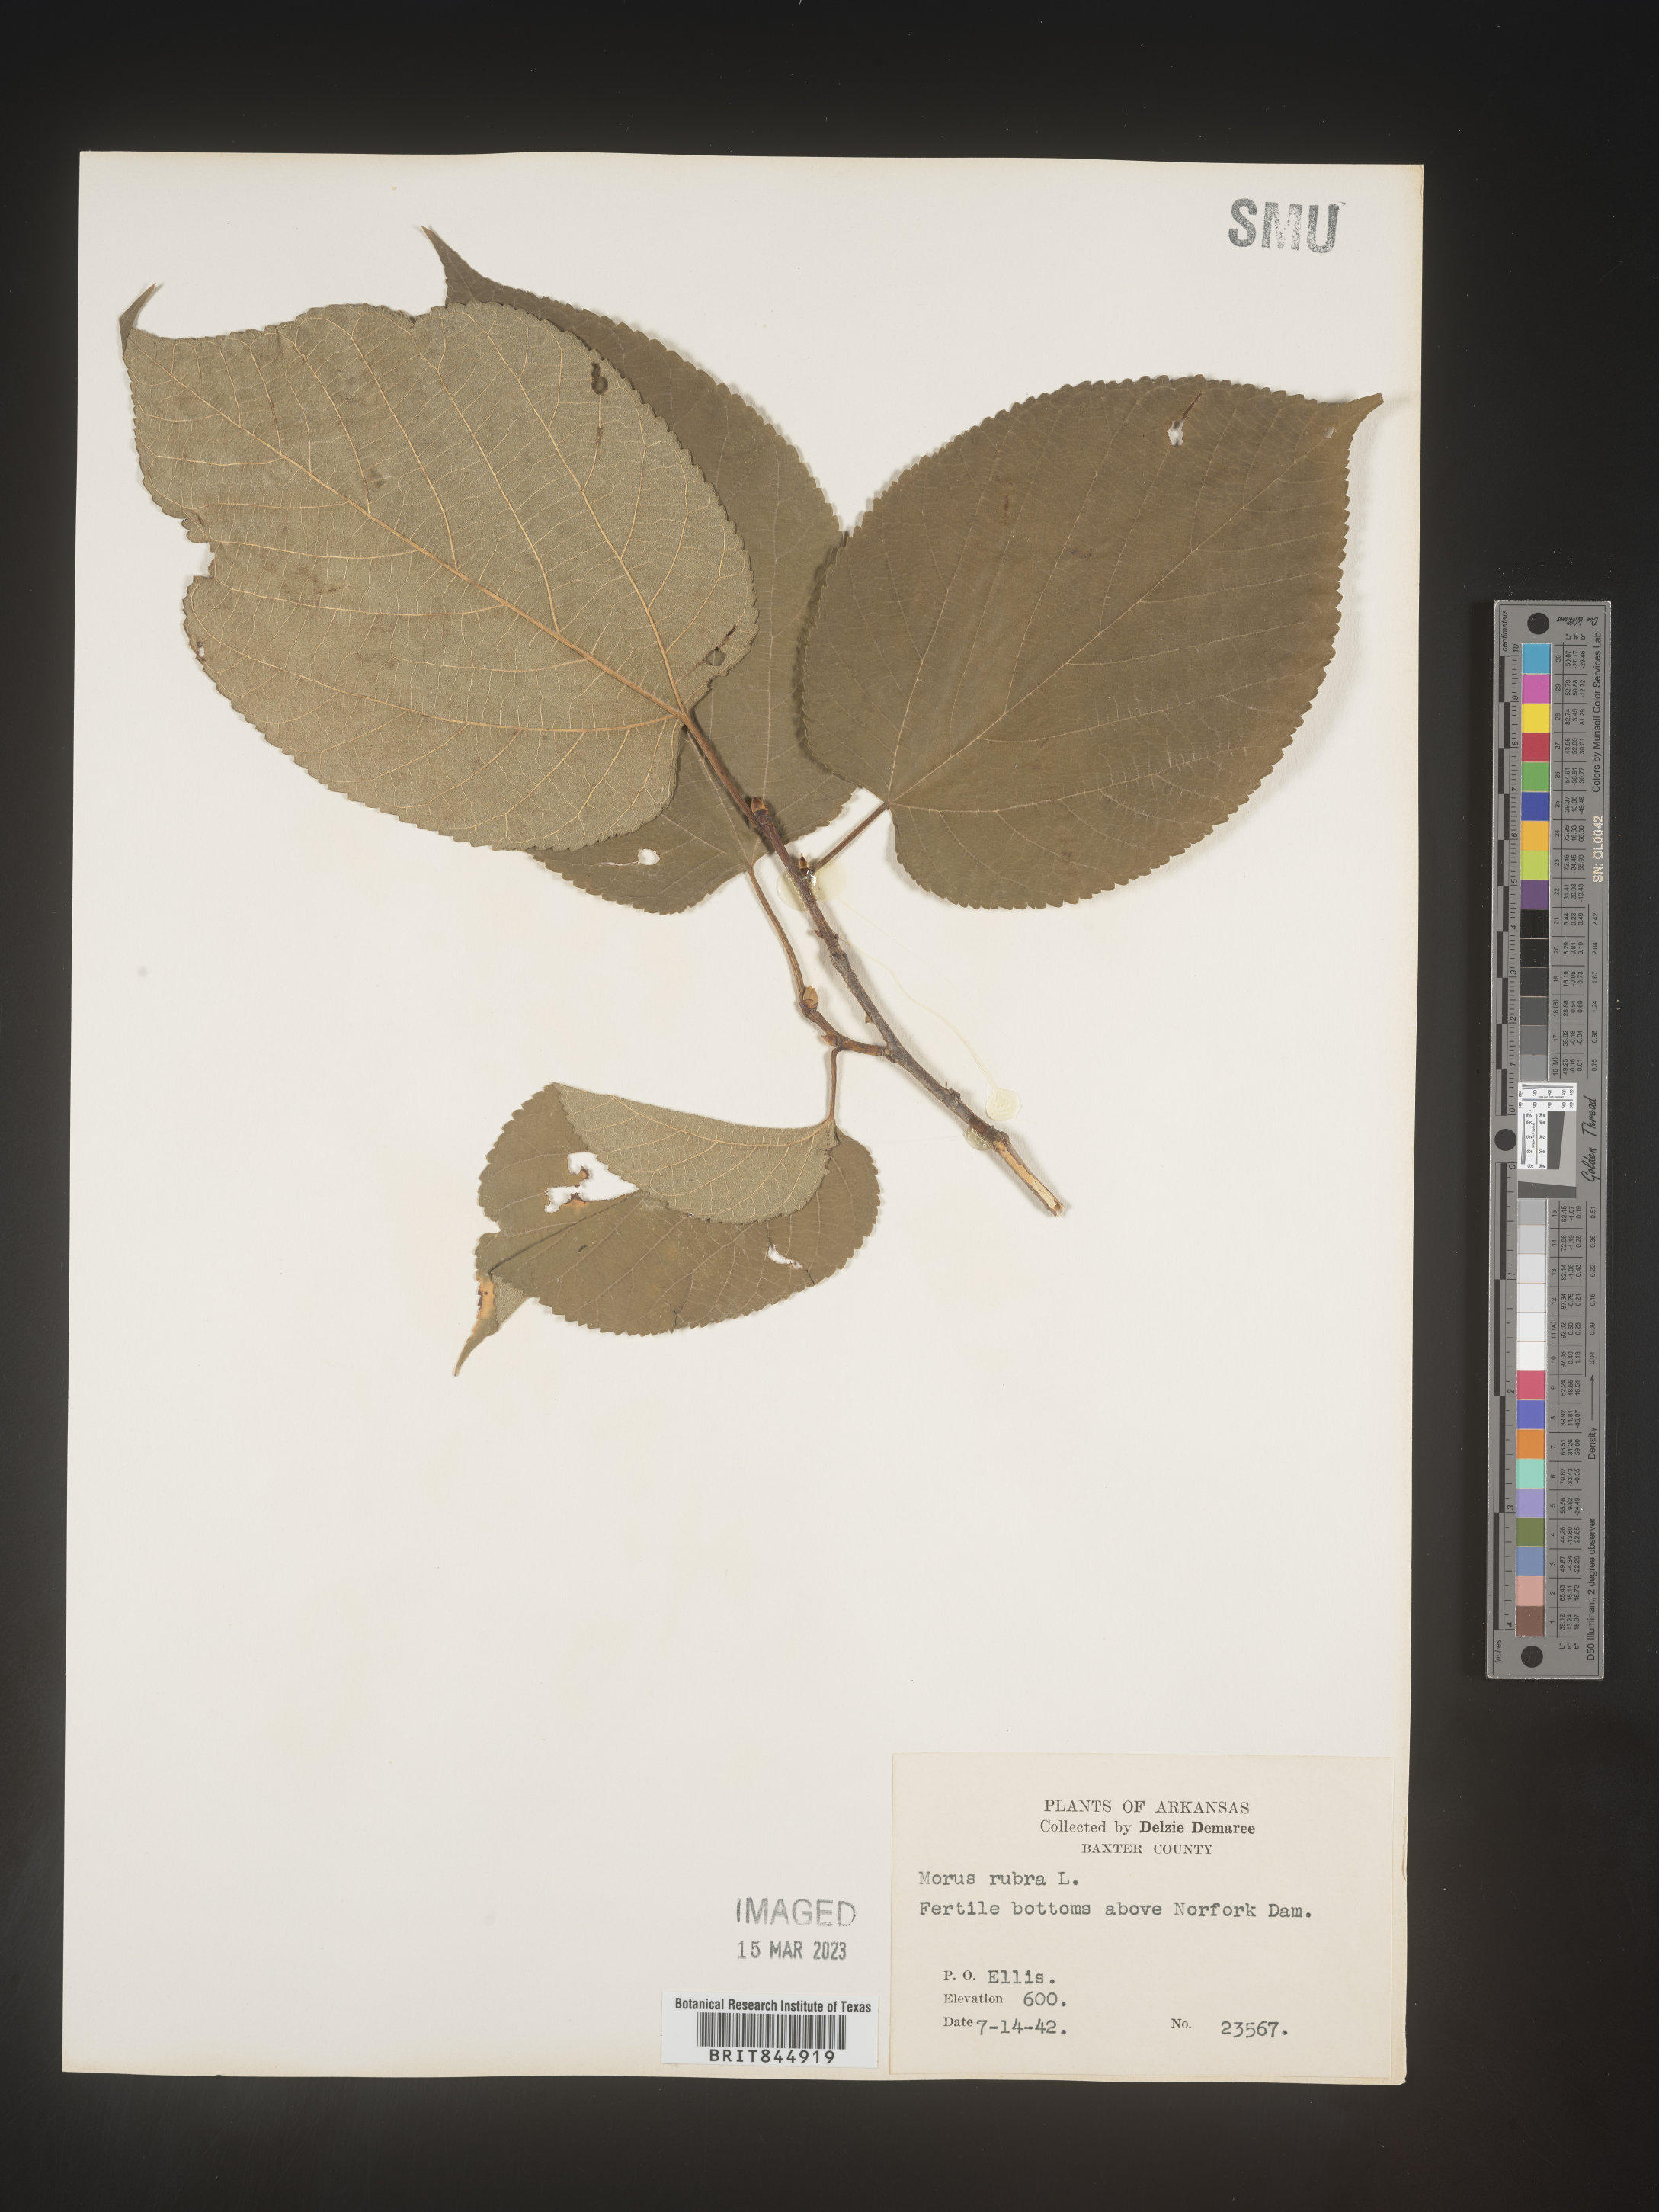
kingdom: Plantae
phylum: Tracheophyta
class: Magnoliopsida
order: Rosales
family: Moraceae
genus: Morus
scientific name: Morus rubra
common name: Red mulberry
